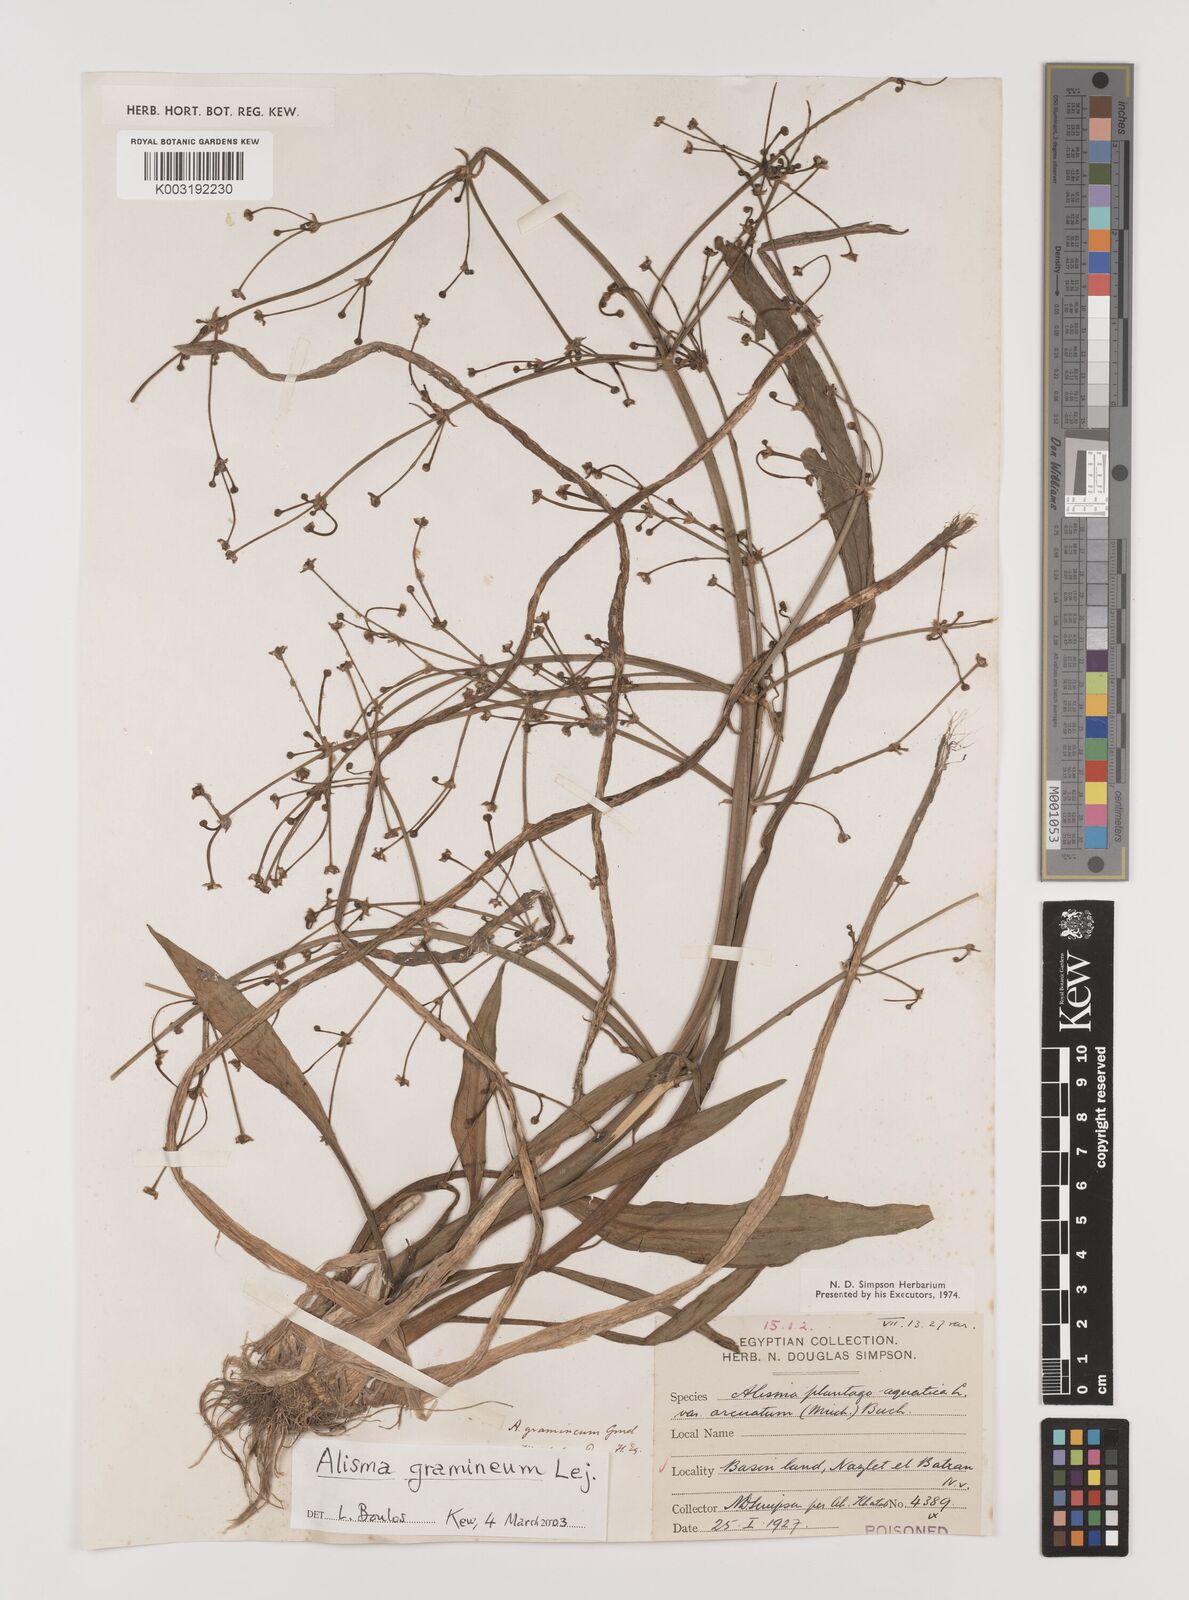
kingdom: Plantae
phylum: Tracheophyta
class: Liliopsida
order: Alismatales
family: Alismataceae
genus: Alisma
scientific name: Alisma gramineum
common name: Ribbon-leaved water-plantain
